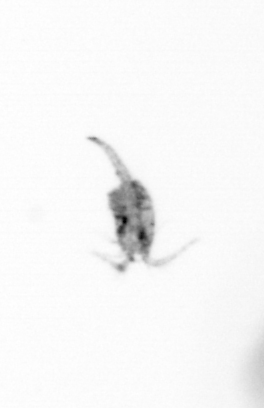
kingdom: Animalia
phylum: Arthropoda
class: Copepoda
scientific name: Copepoda
